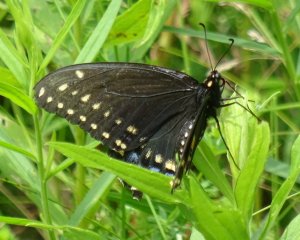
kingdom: Animalia
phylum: Arthropoda
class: Insecta
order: Lepidoptera
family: Papilionidae
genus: Papilio
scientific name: Papilio polyxenes
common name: Black Swallowtail
